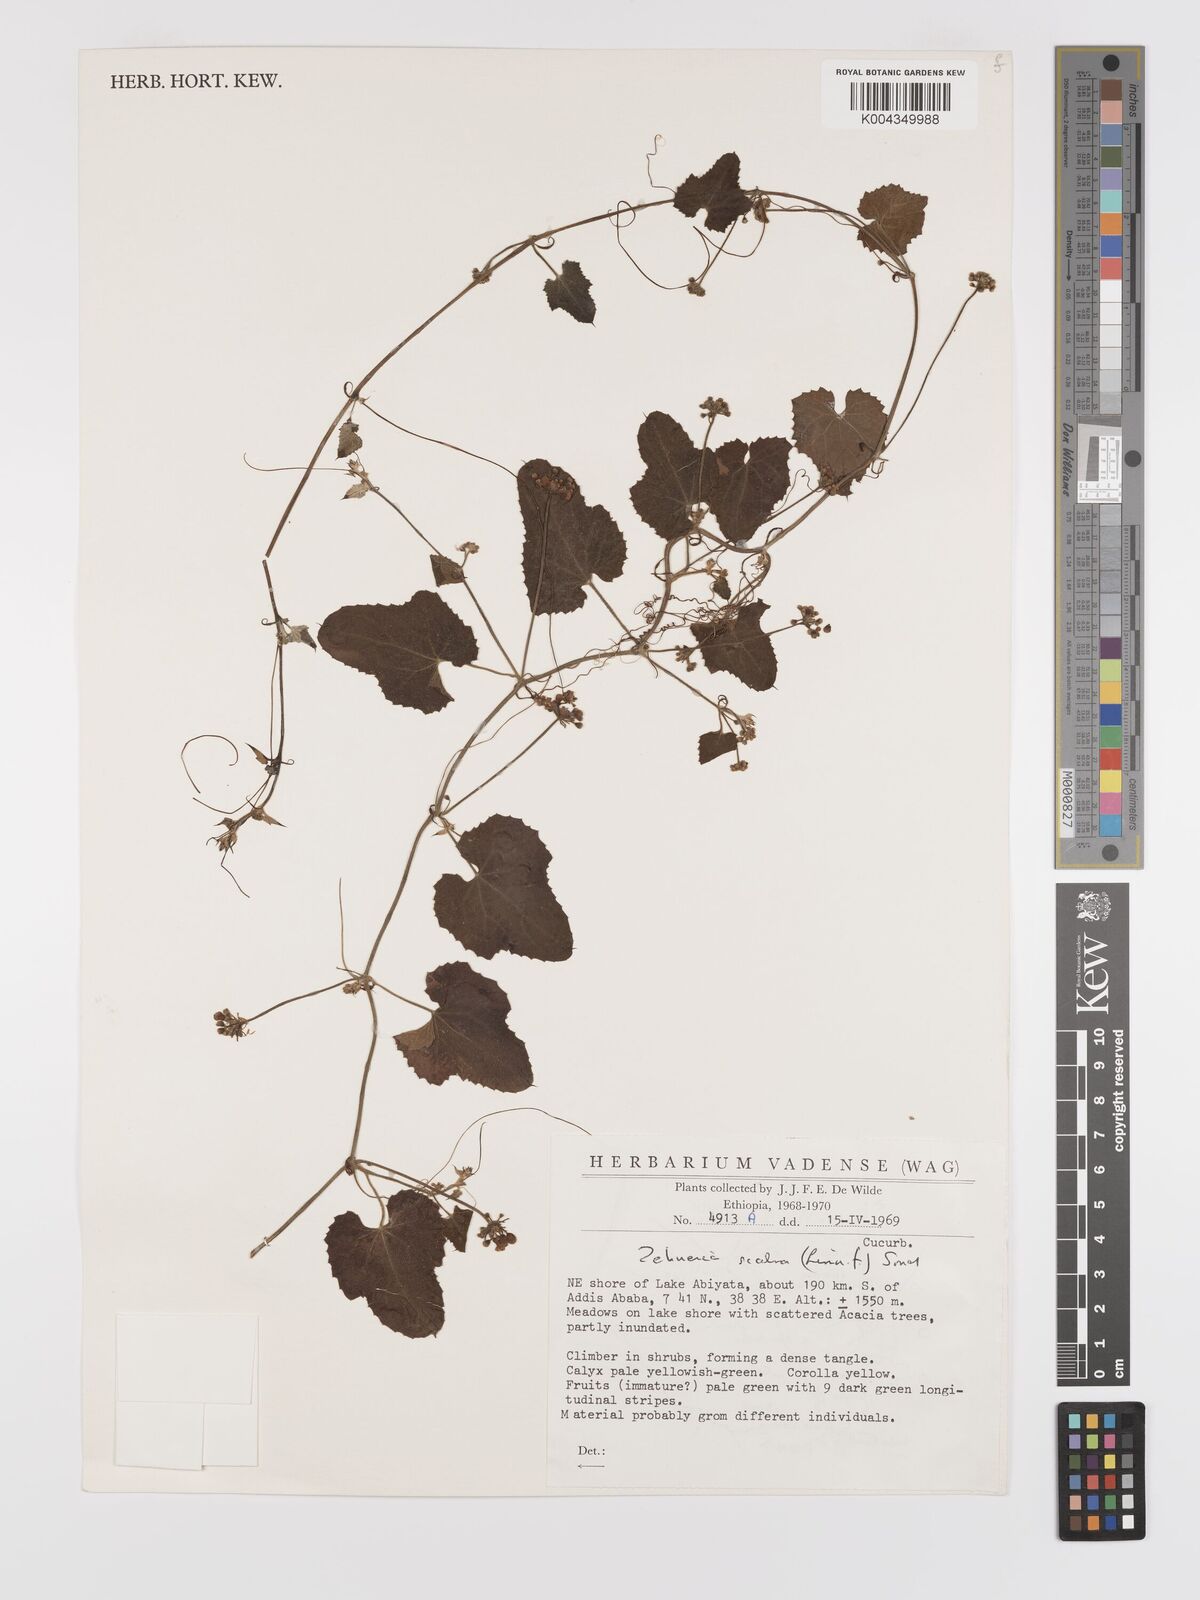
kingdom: Plantae
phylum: Tracheophyta
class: Magnoliopsida
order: Cucurbitales
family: Cucurbitaceae
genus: Zehneria
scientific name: Zehneria scabra
